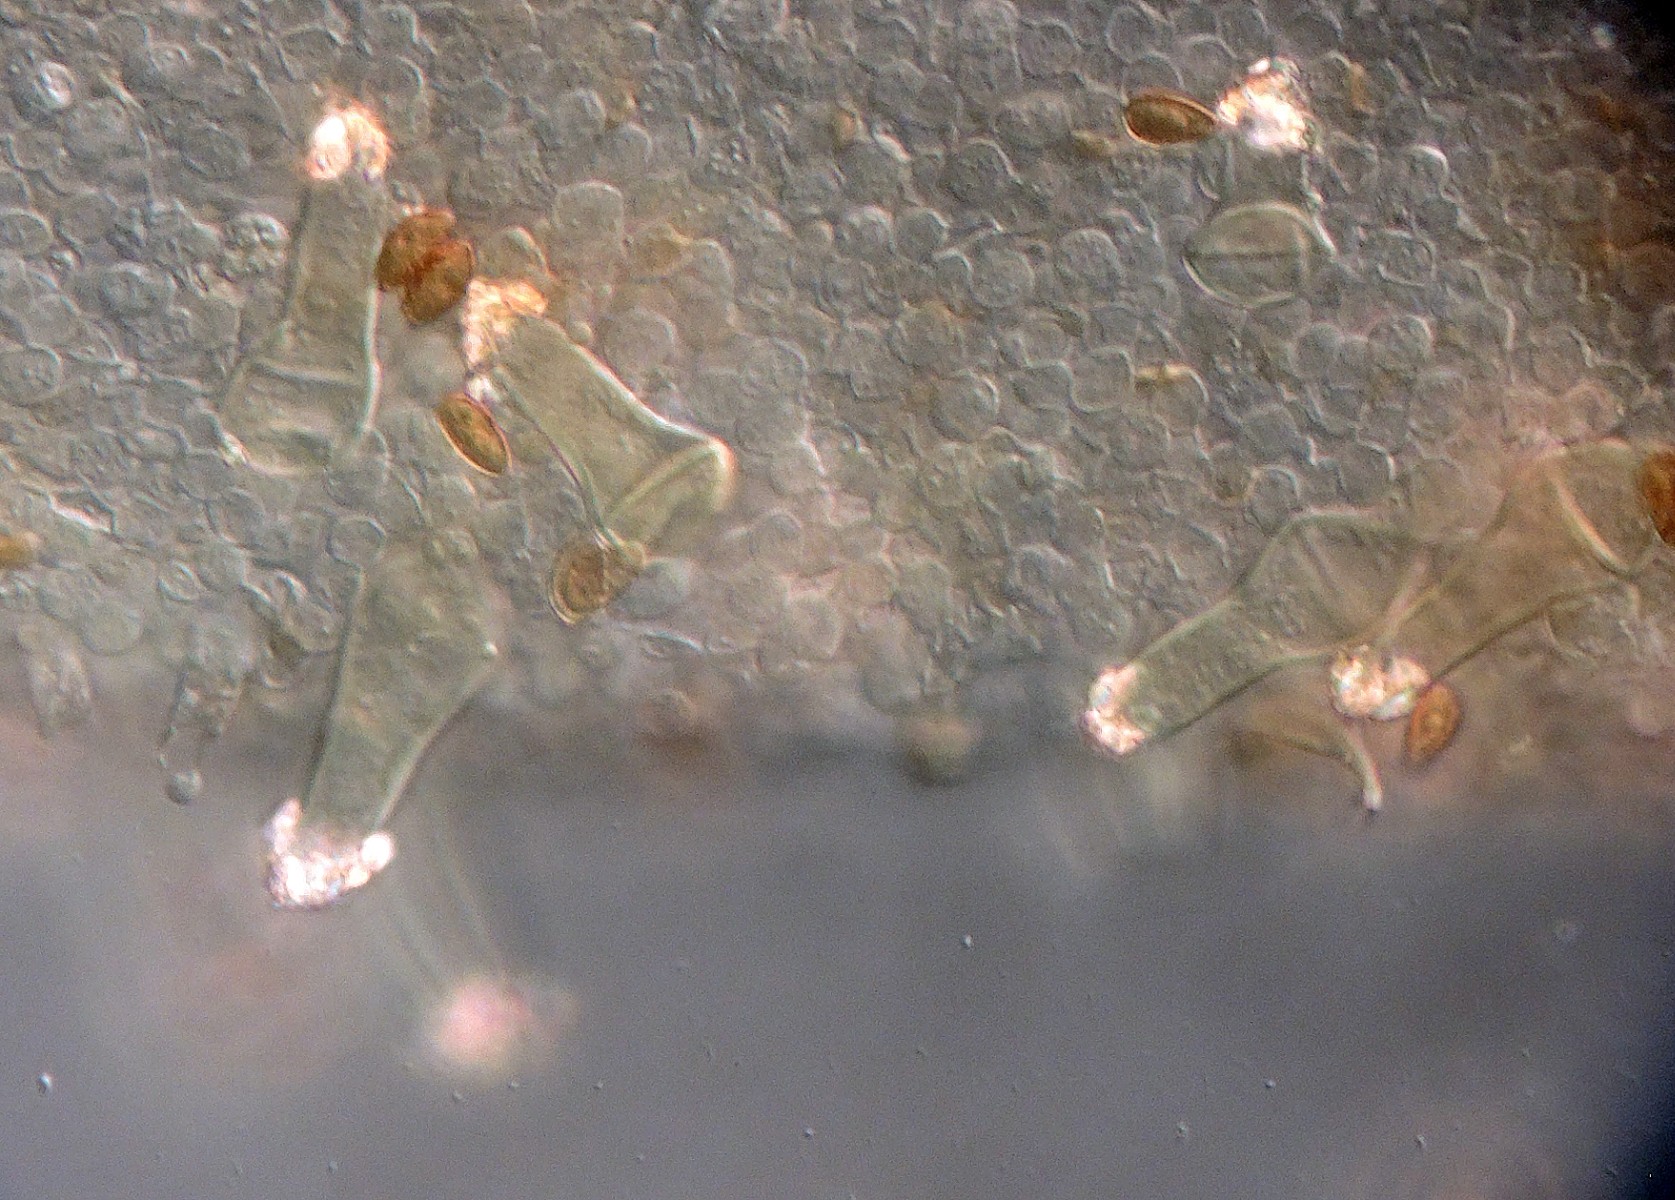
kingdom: Fungi
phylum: Basidiomycota
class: Agaricomycetes
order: Agaricales
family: Hymenogastraceae
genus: Galerina
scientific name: Galerina nana
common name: dværg-hjelmhat
